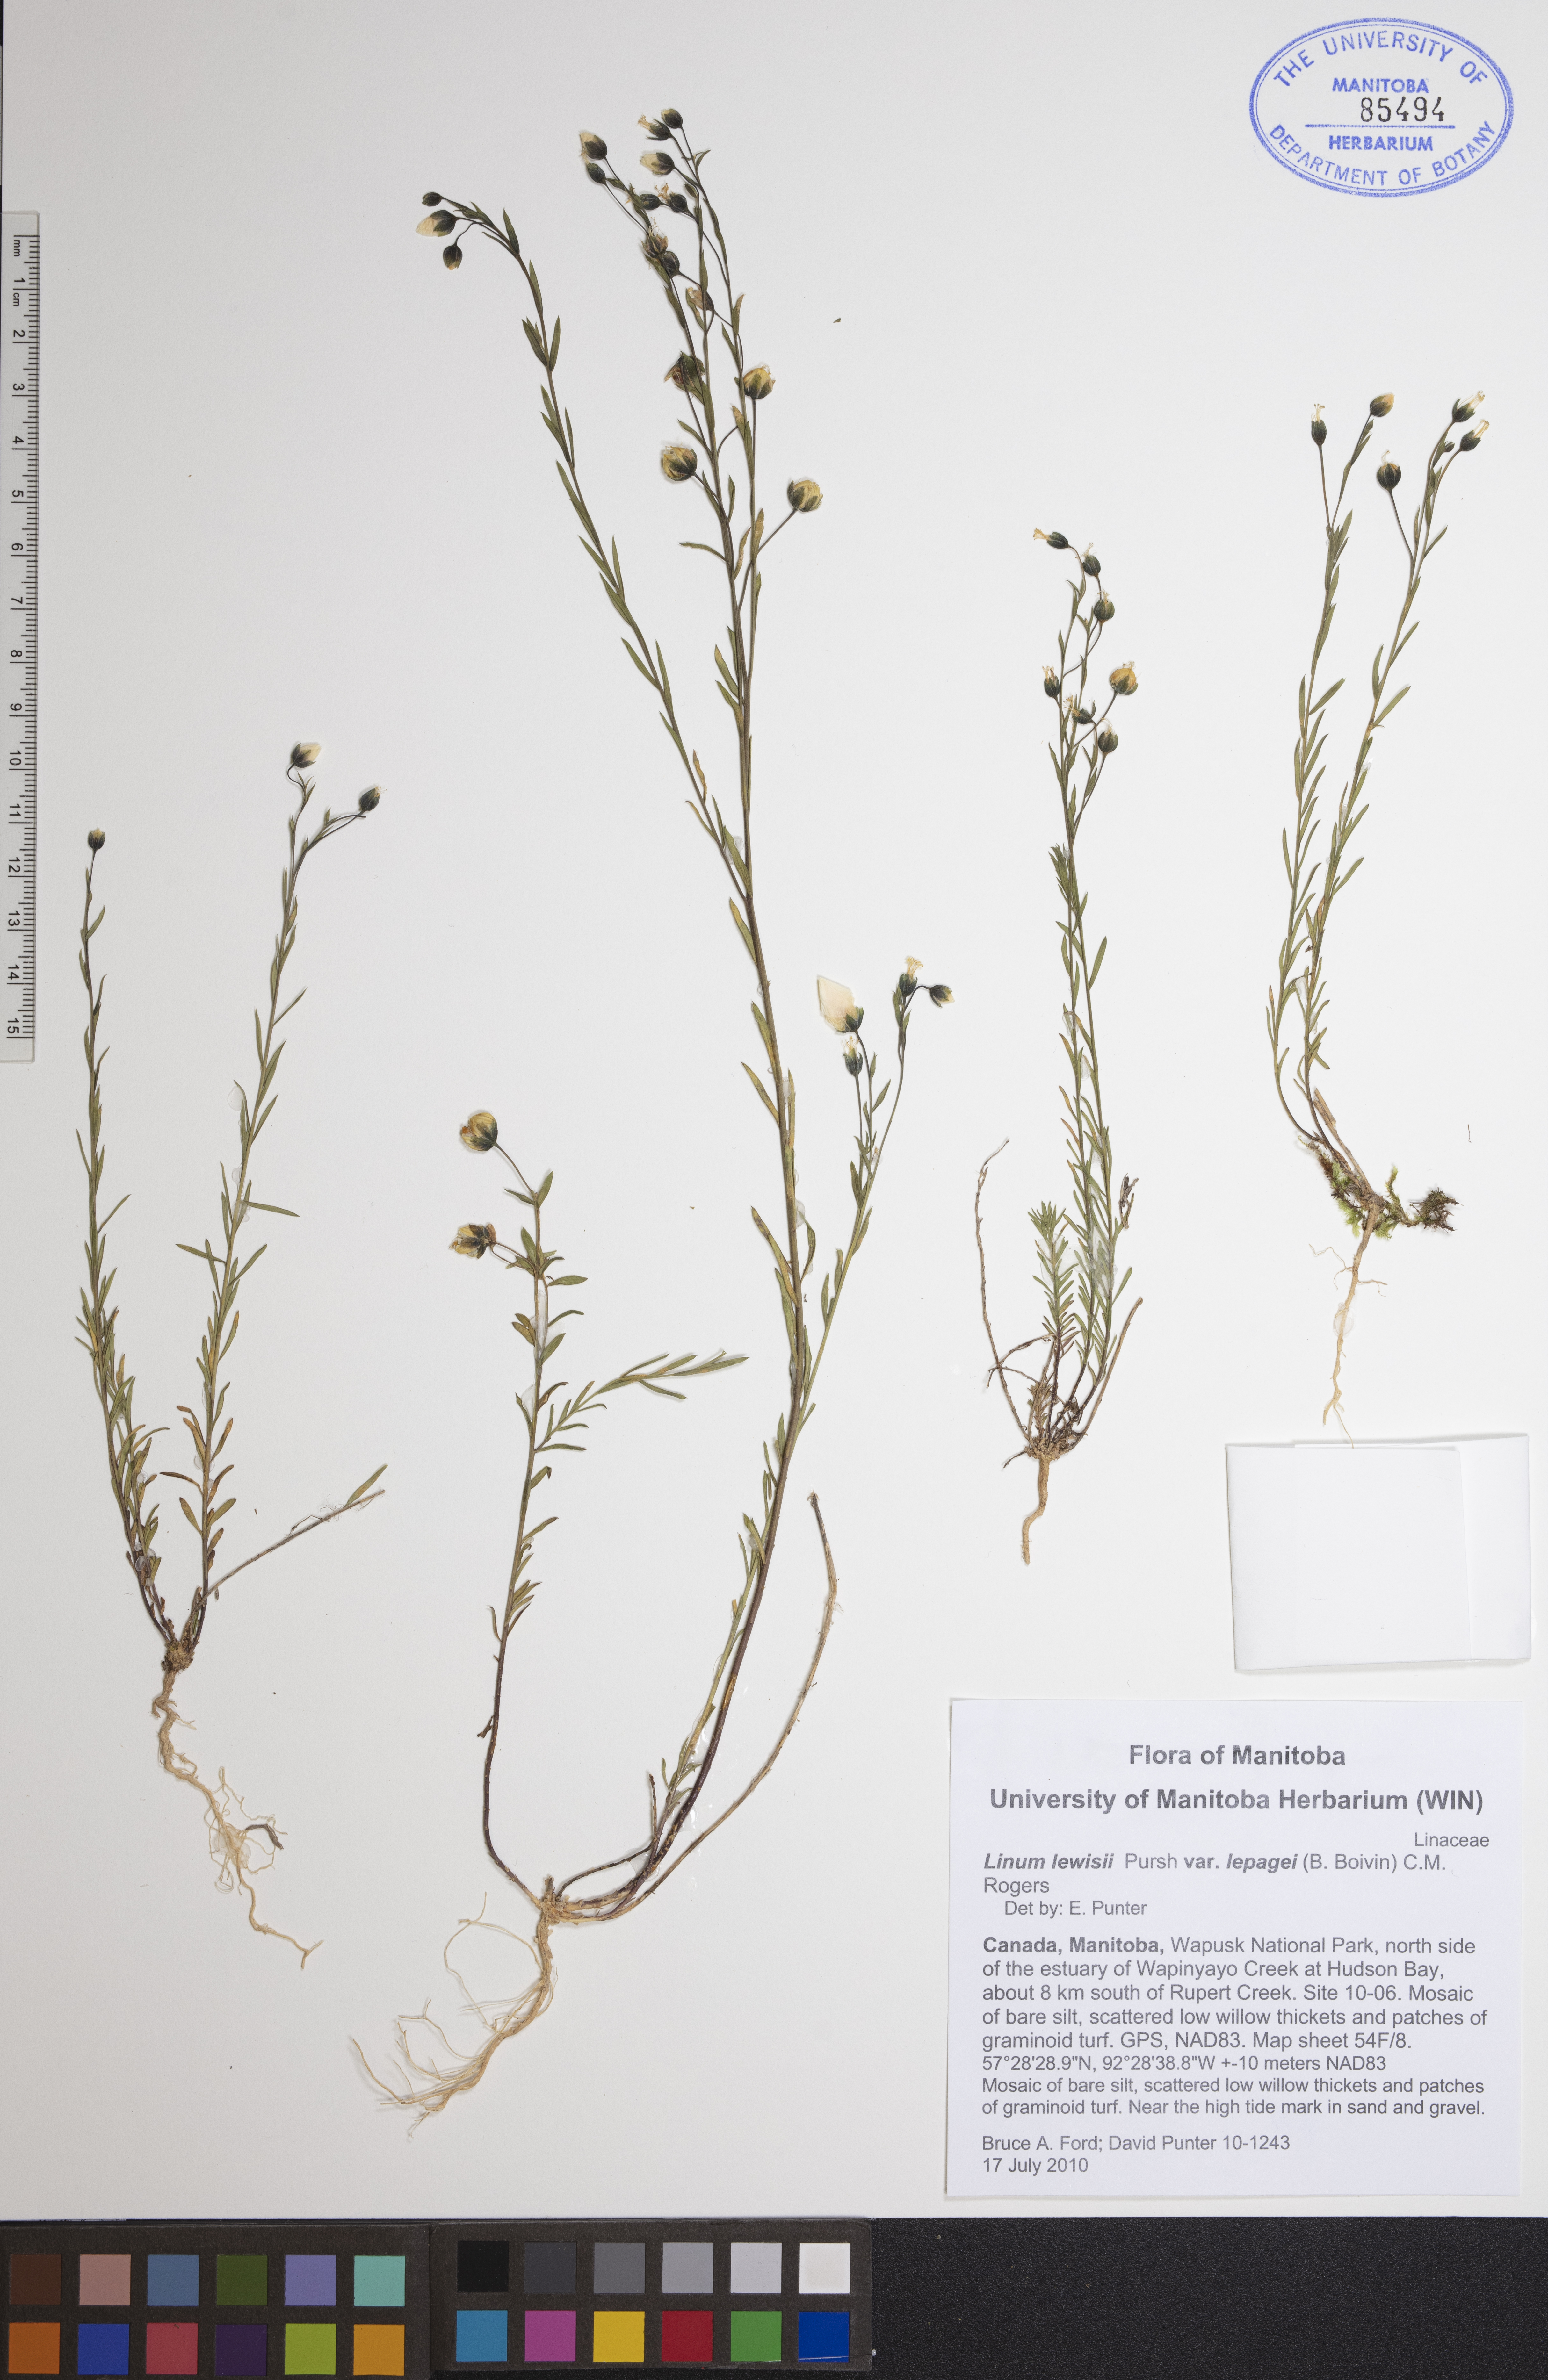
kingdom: Plantae
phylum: Tracheophyta
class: Magnoliopsida
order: Malpighiales
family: Linaceae
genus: Linum
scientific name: Linum lewisii
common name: Prairie flax
